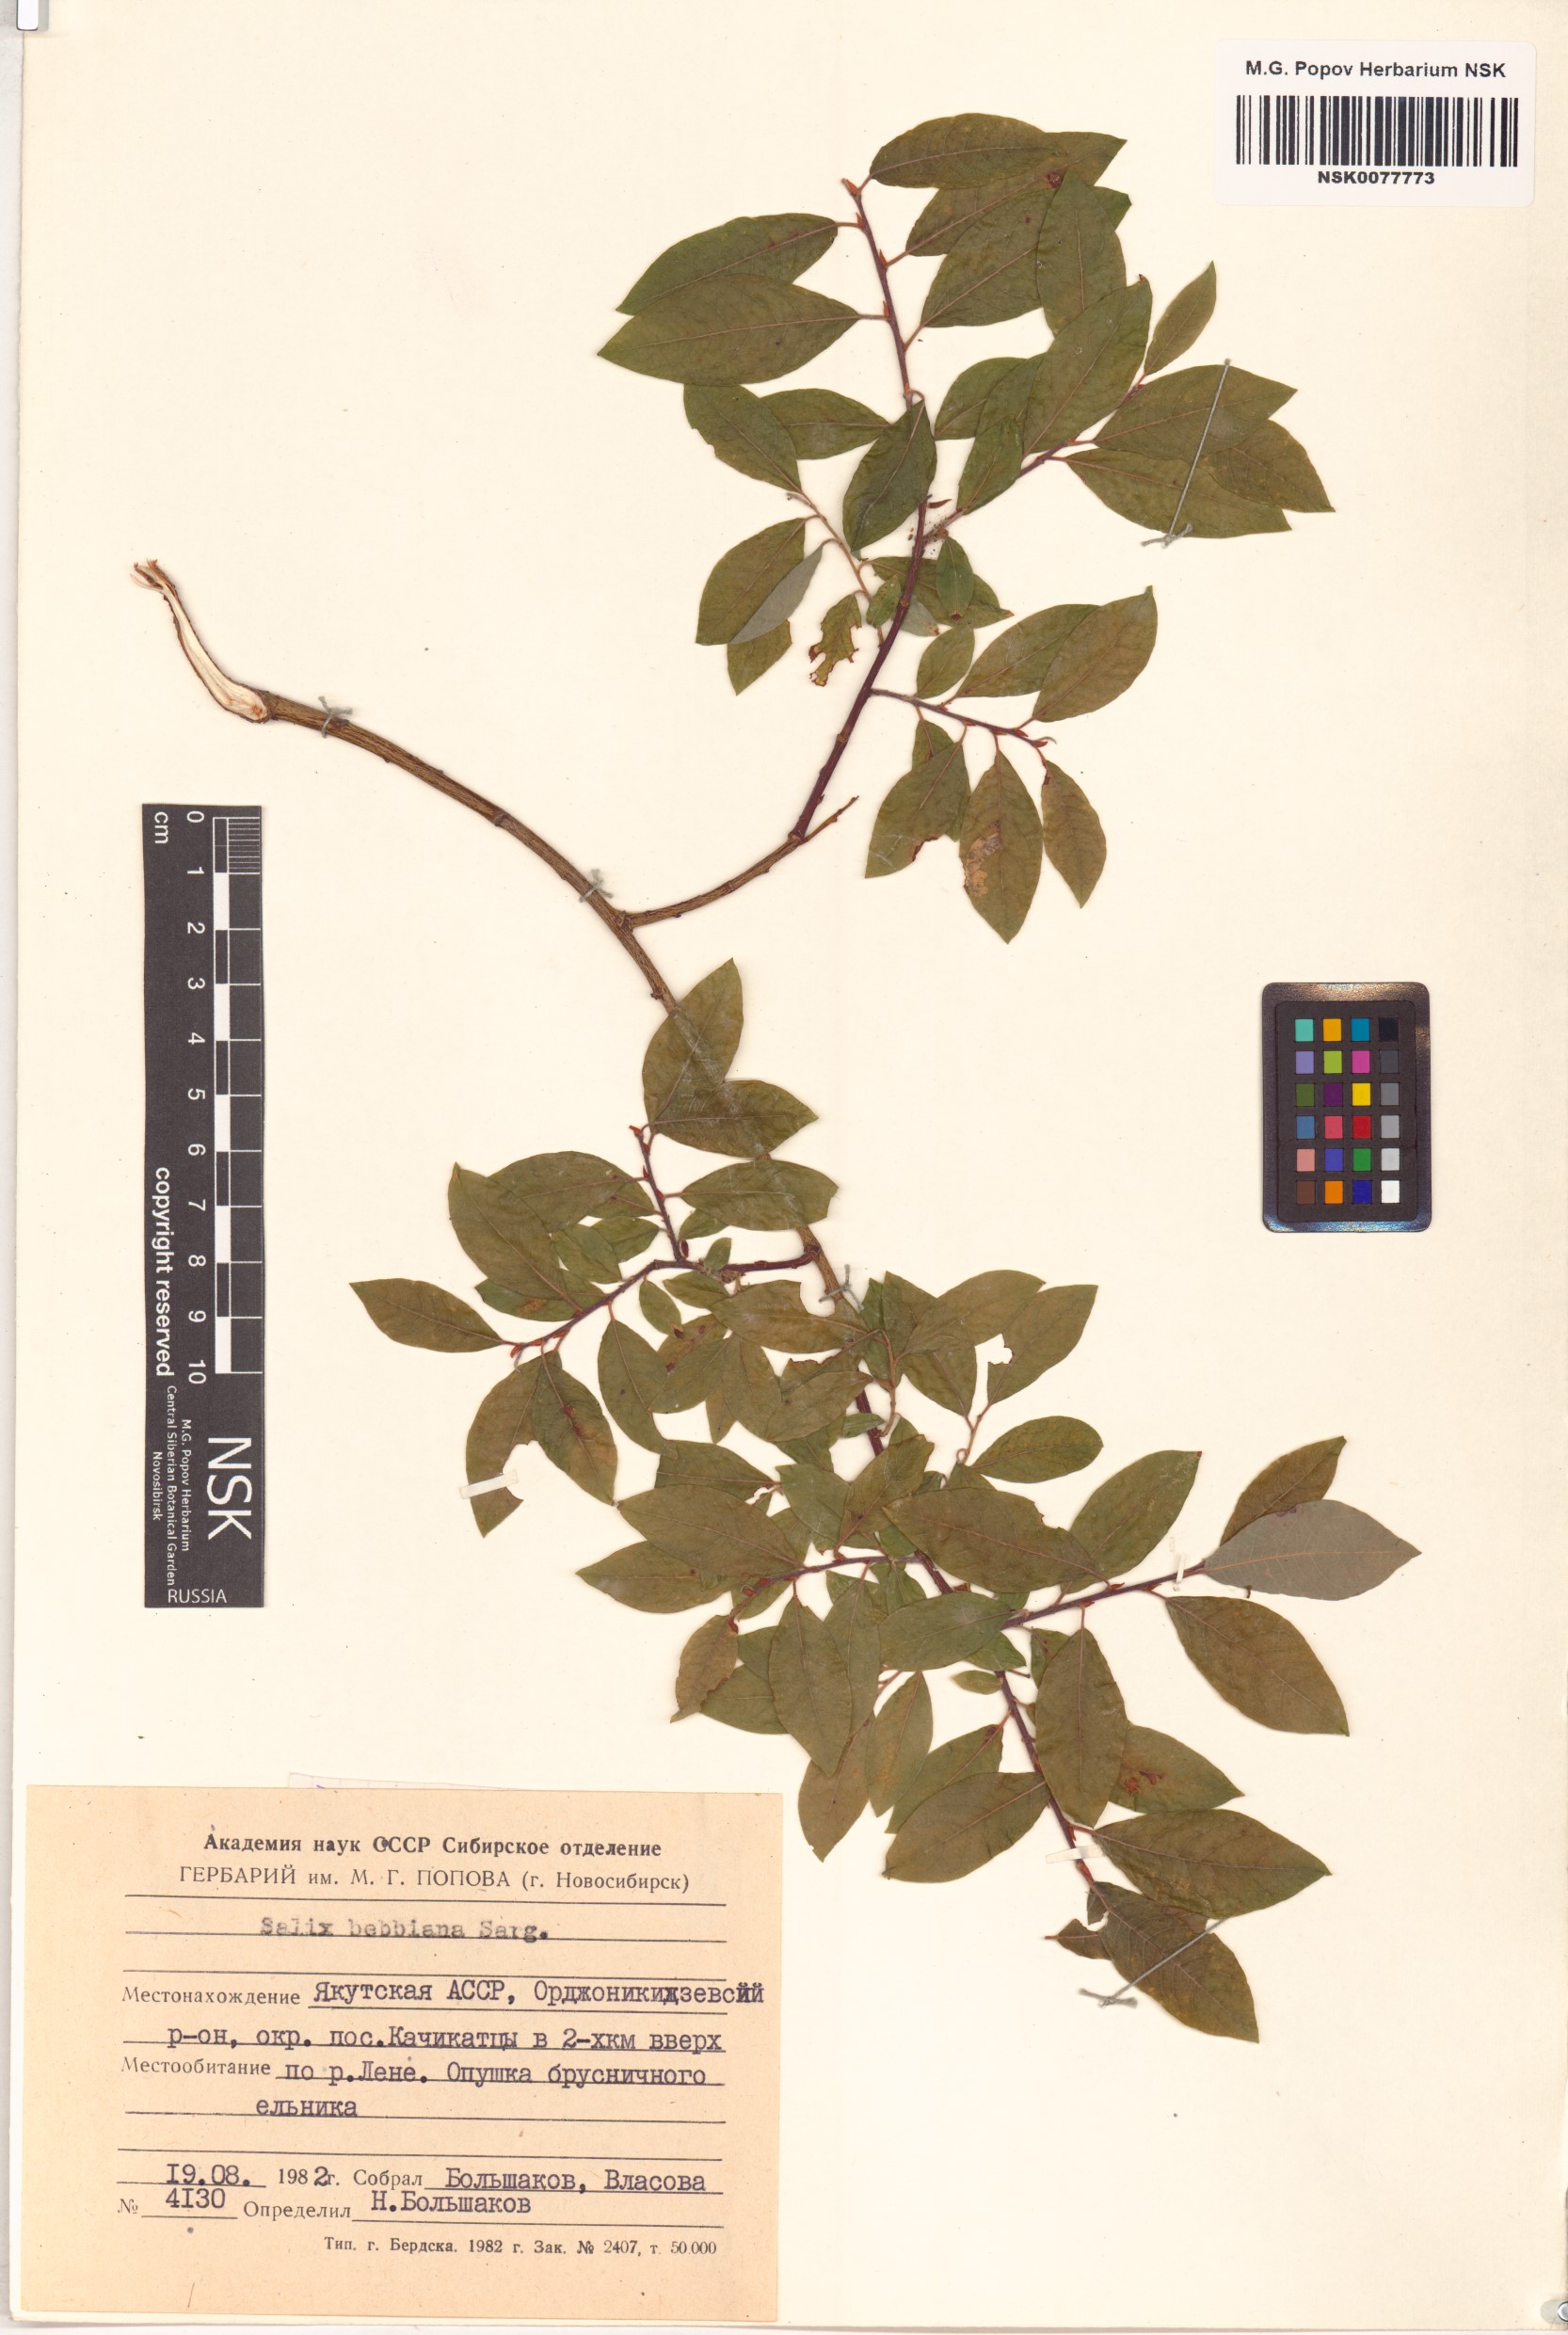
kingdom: Plantae
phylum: Tracheophyta
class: Magnoliopsida
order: Malpighiales
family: Salicaceae
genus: Salix
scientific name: Salix bebbiana
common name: Bebb's willow
